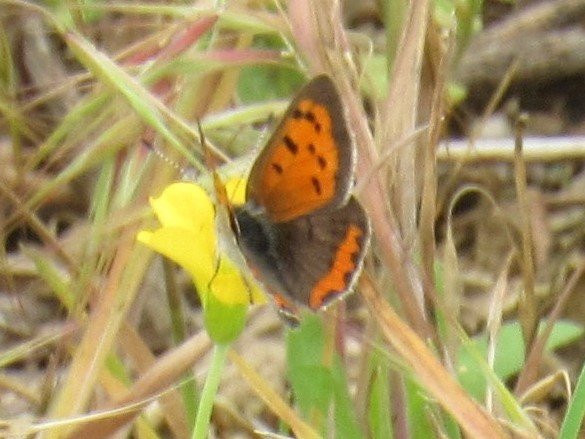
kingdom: Animalia
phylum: Arthropoda
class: Insecta
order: Lepidoptera
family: Lycaenidae
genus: Lycaena
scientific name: Lycaena phlaeas
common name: American Copper
